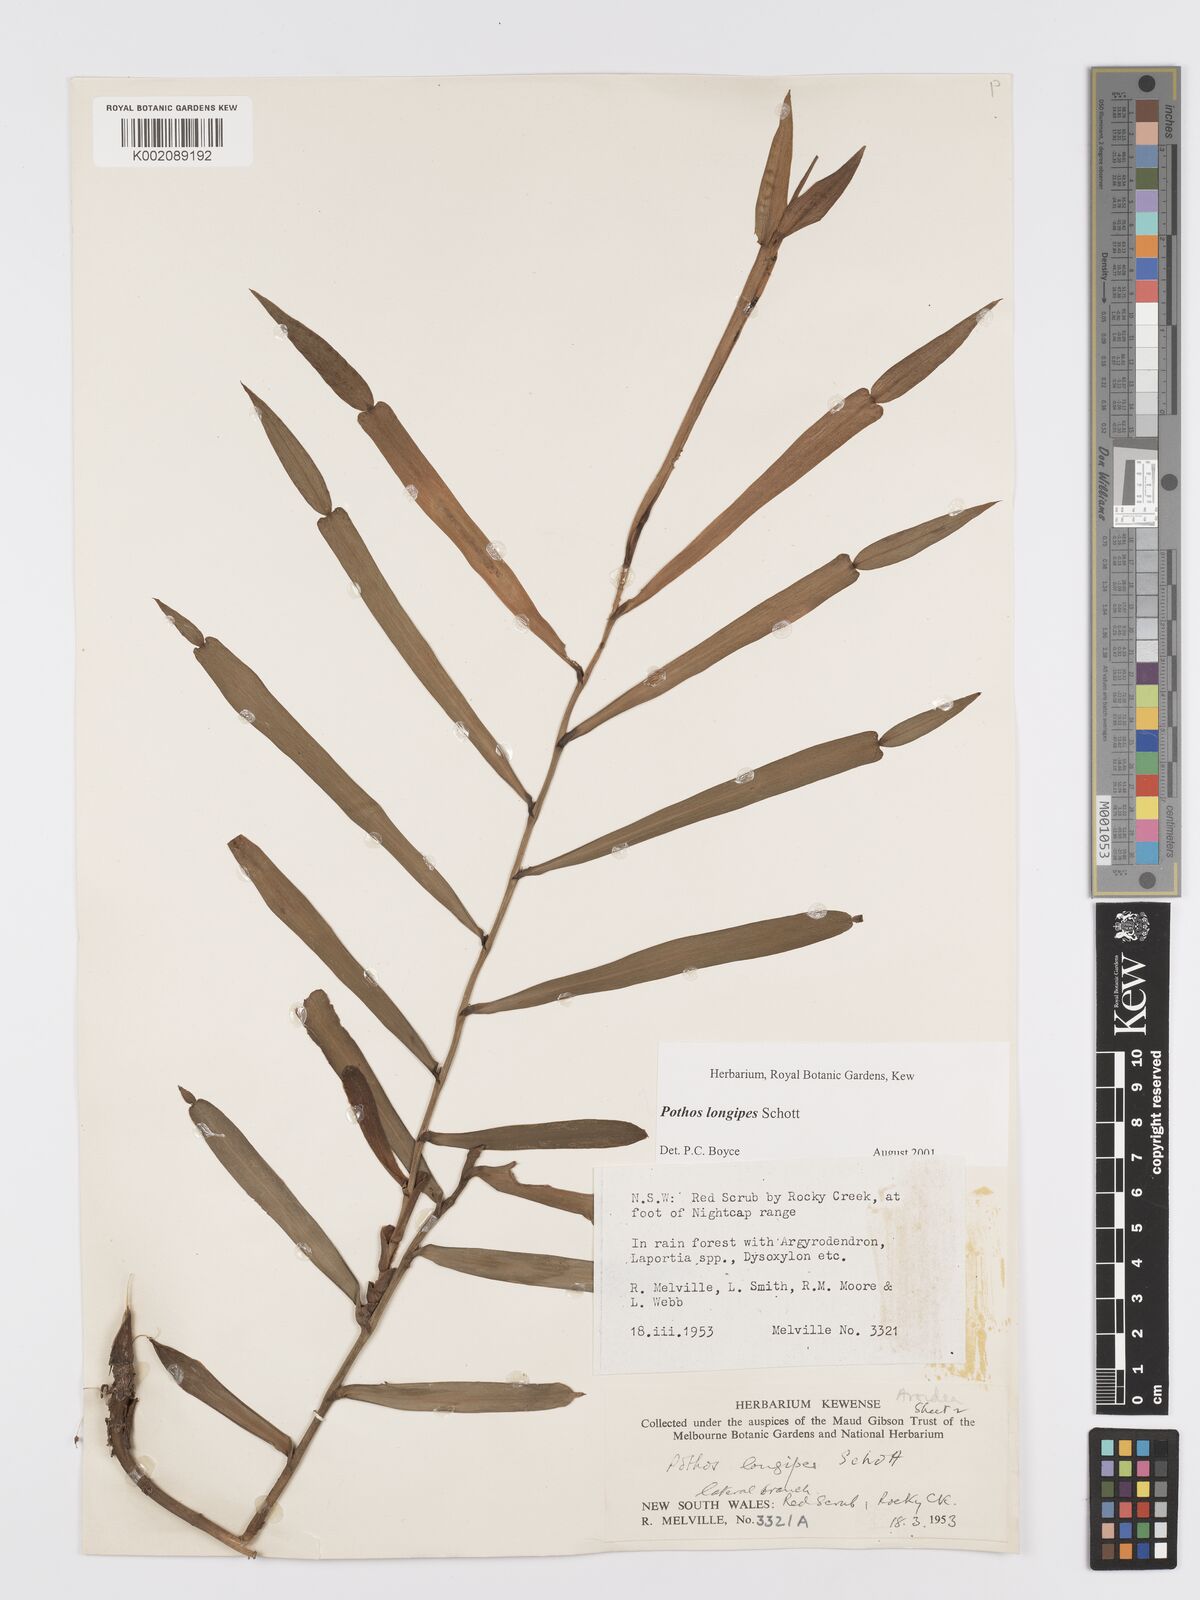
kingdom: Plantae
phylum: Tracheophyta
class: Liliopsida
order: Alismatales
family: Araceae
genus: Pothos
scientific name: Pothos longipes
